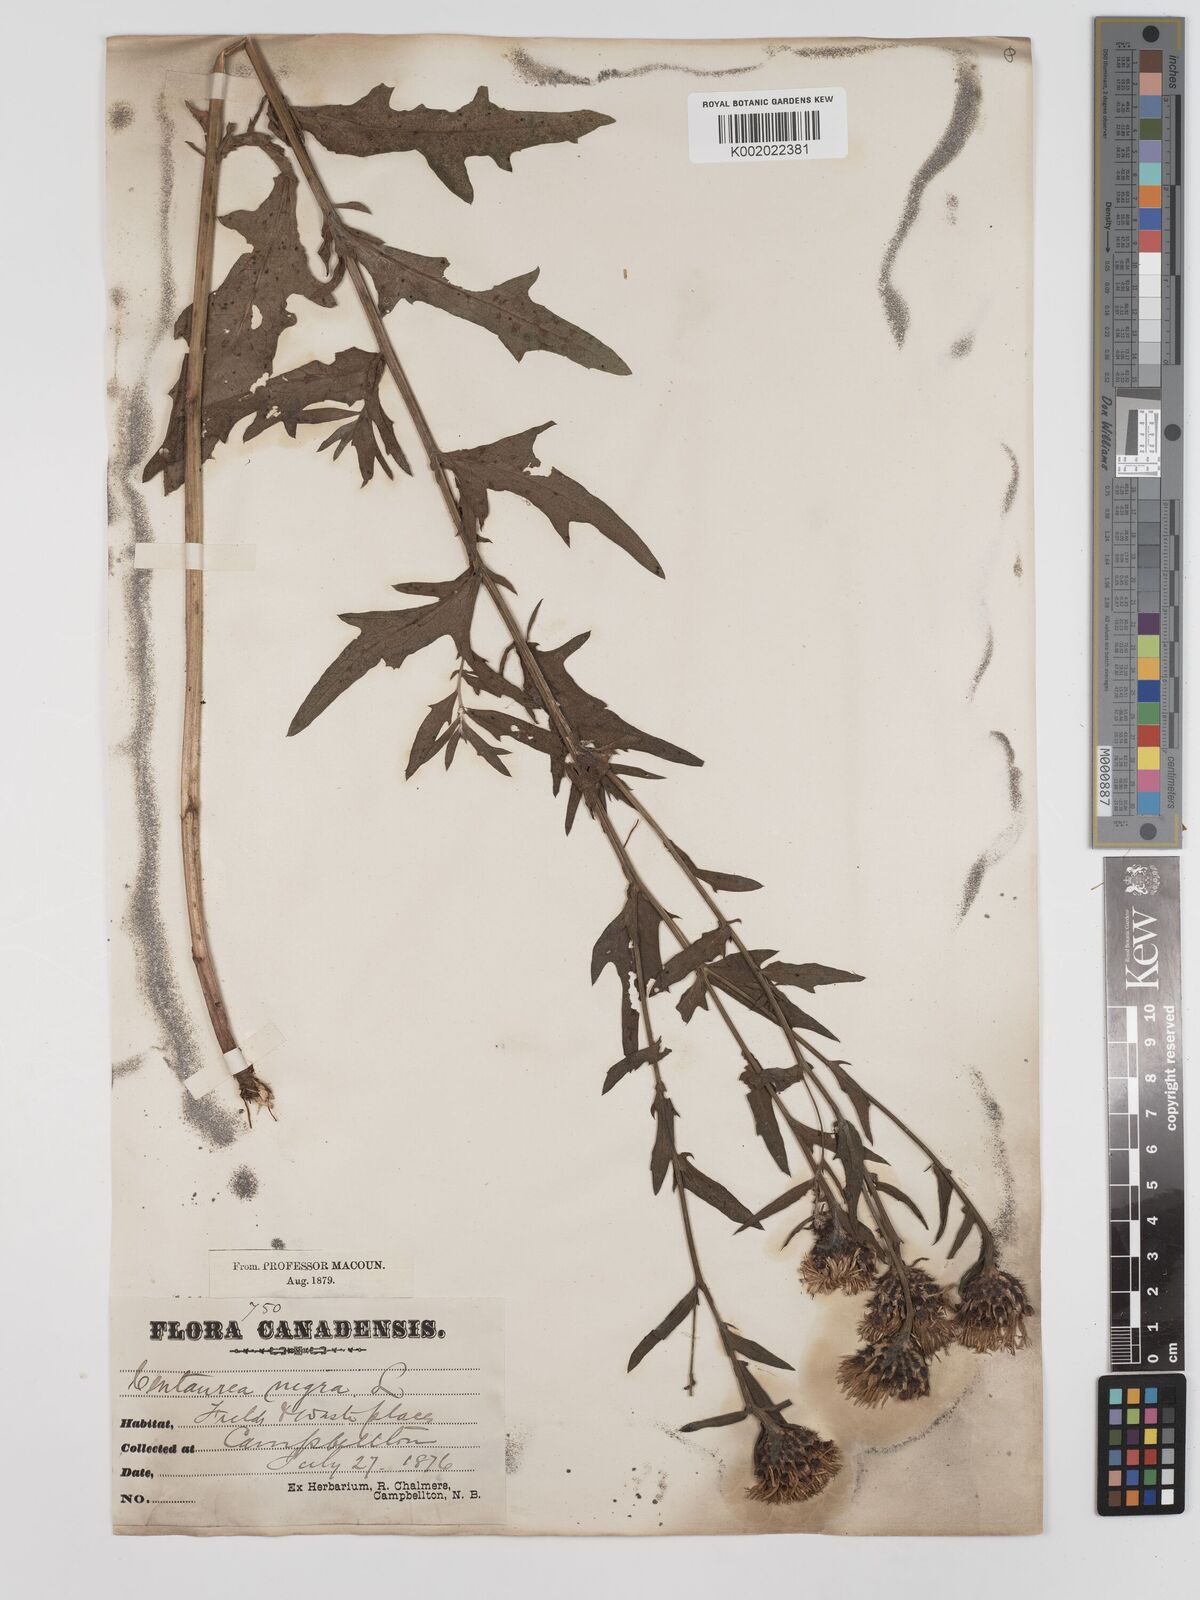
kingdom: Plantae
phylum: Tracheophyta
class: Magnoliopsida
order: Asterales
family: Asteraceae
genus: Centaurea
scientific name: Centaurea nigra
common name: Lesser knapweed
